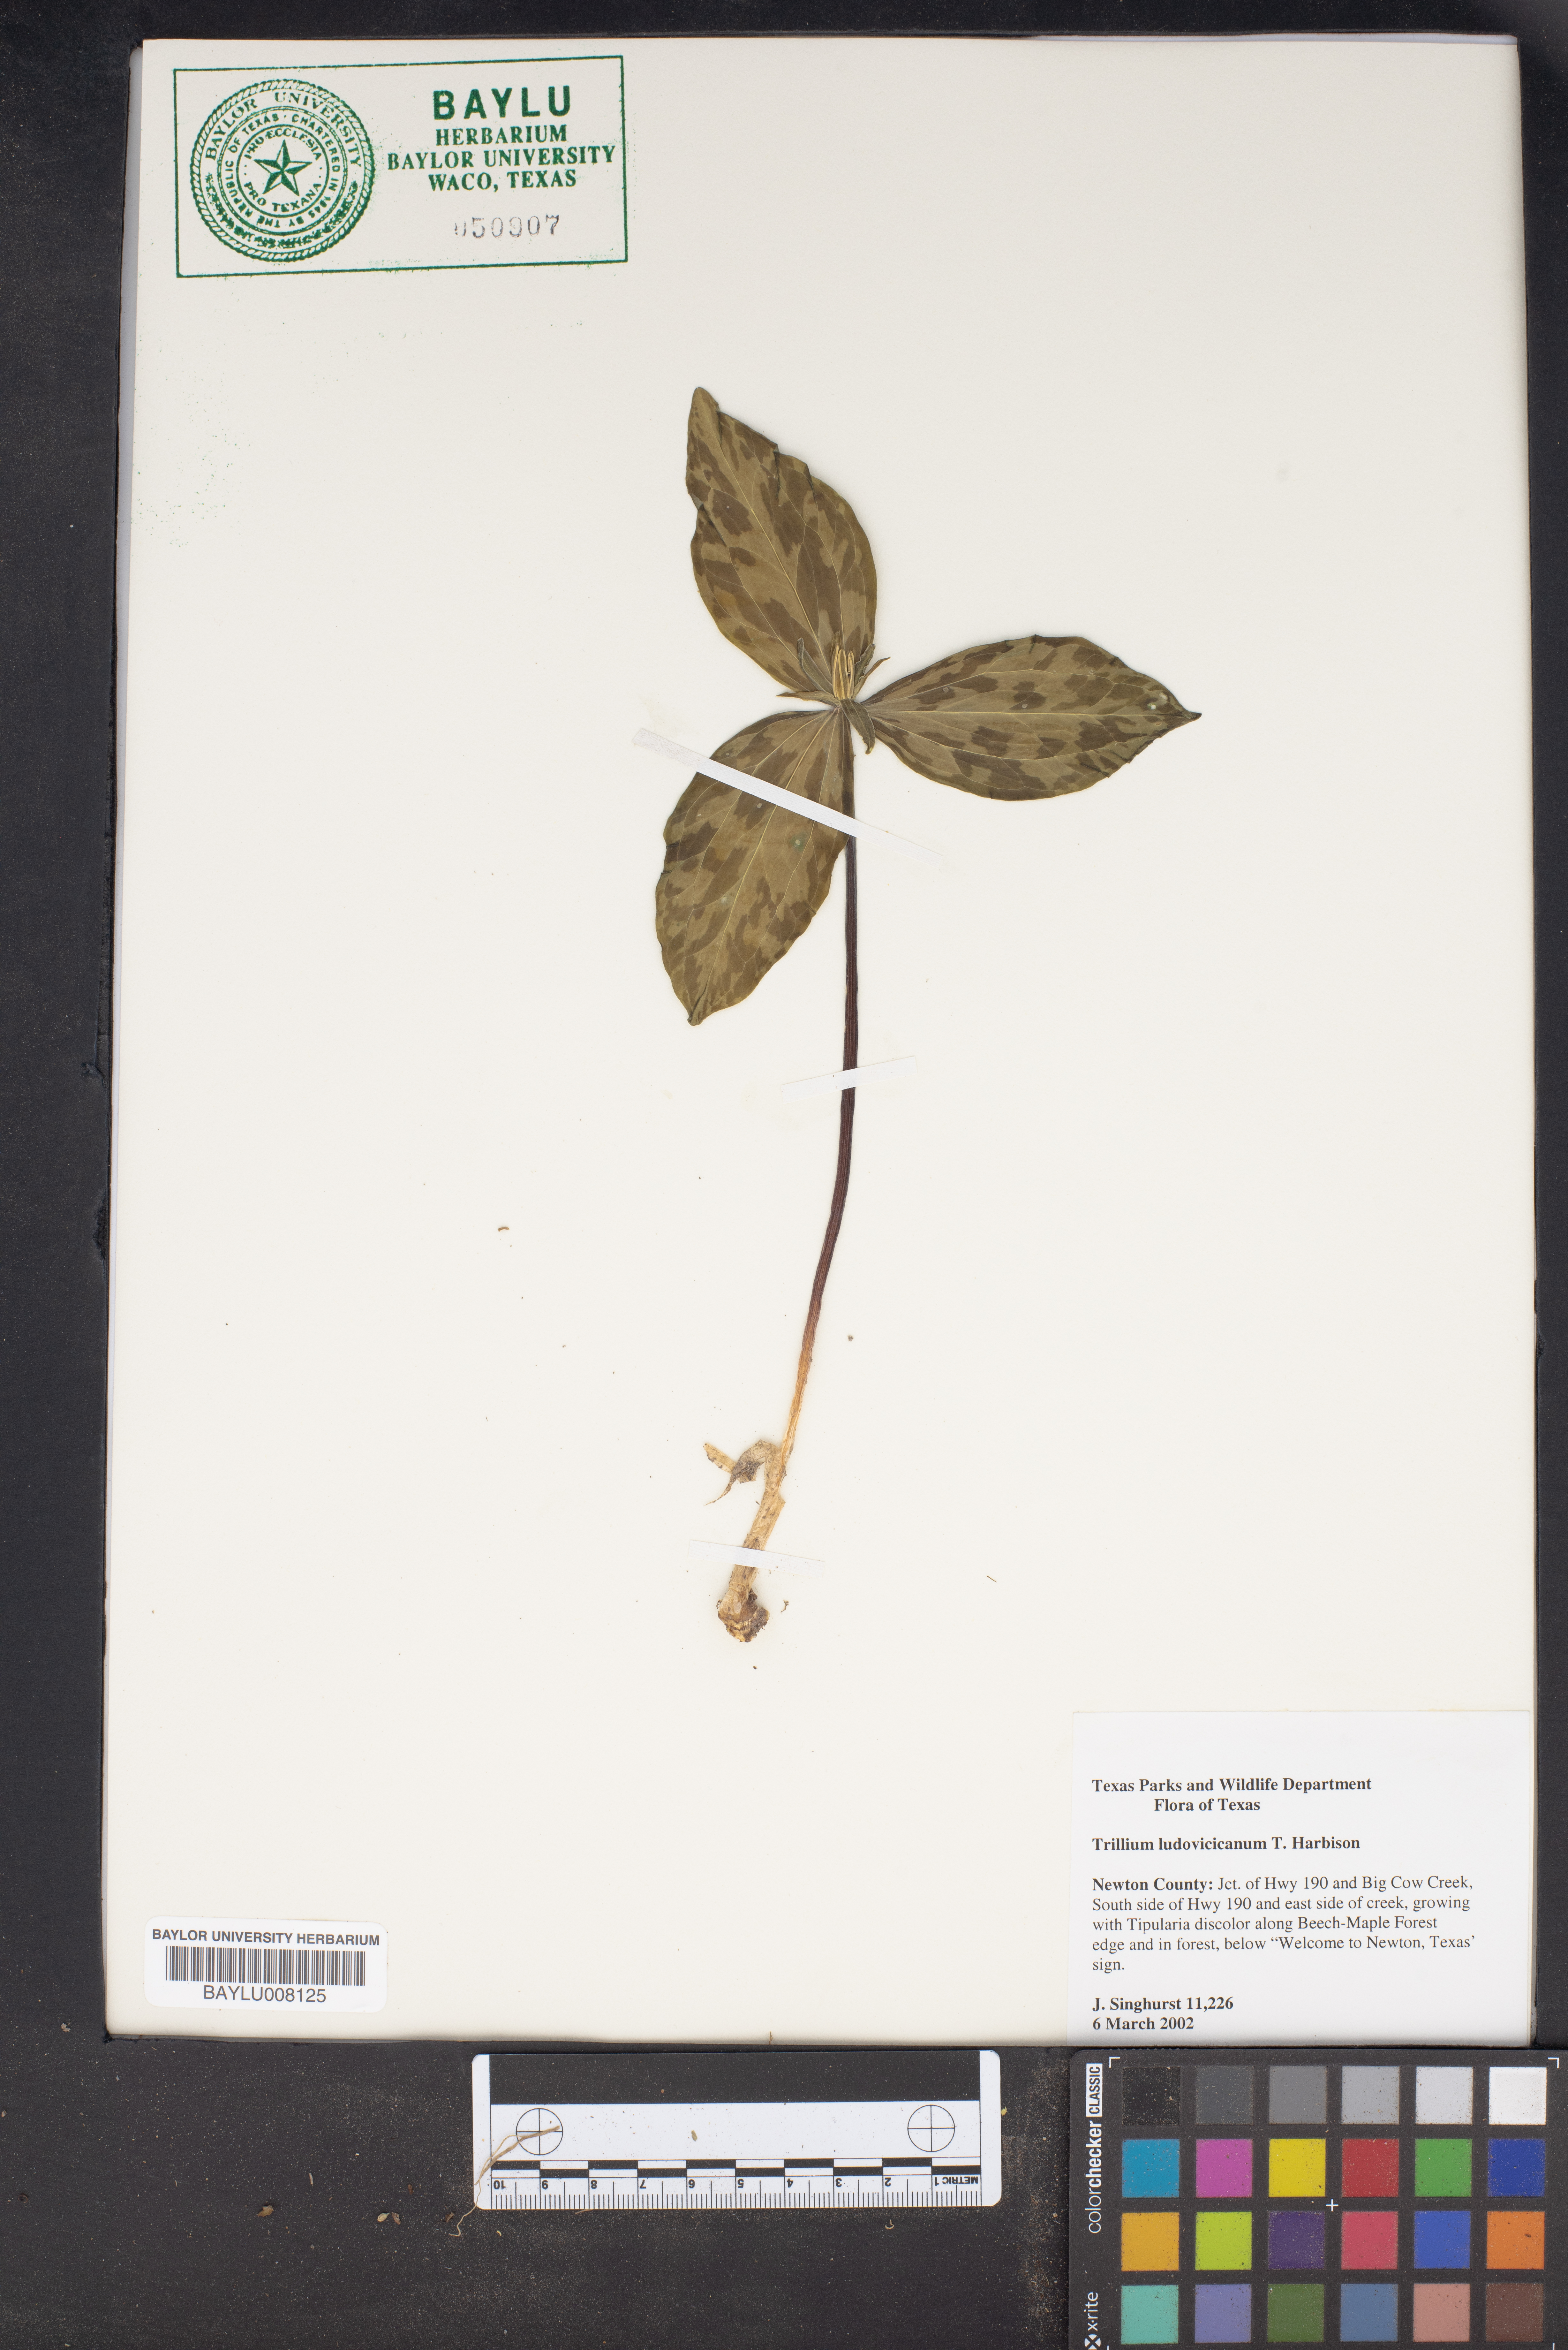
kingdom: Plantae
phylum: Tracheophyta
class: Liliopsida
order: Liliales
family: Melanthiaceae
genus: Trillium
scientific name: Trillium ludovicianum
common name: Louisiana toadshade
